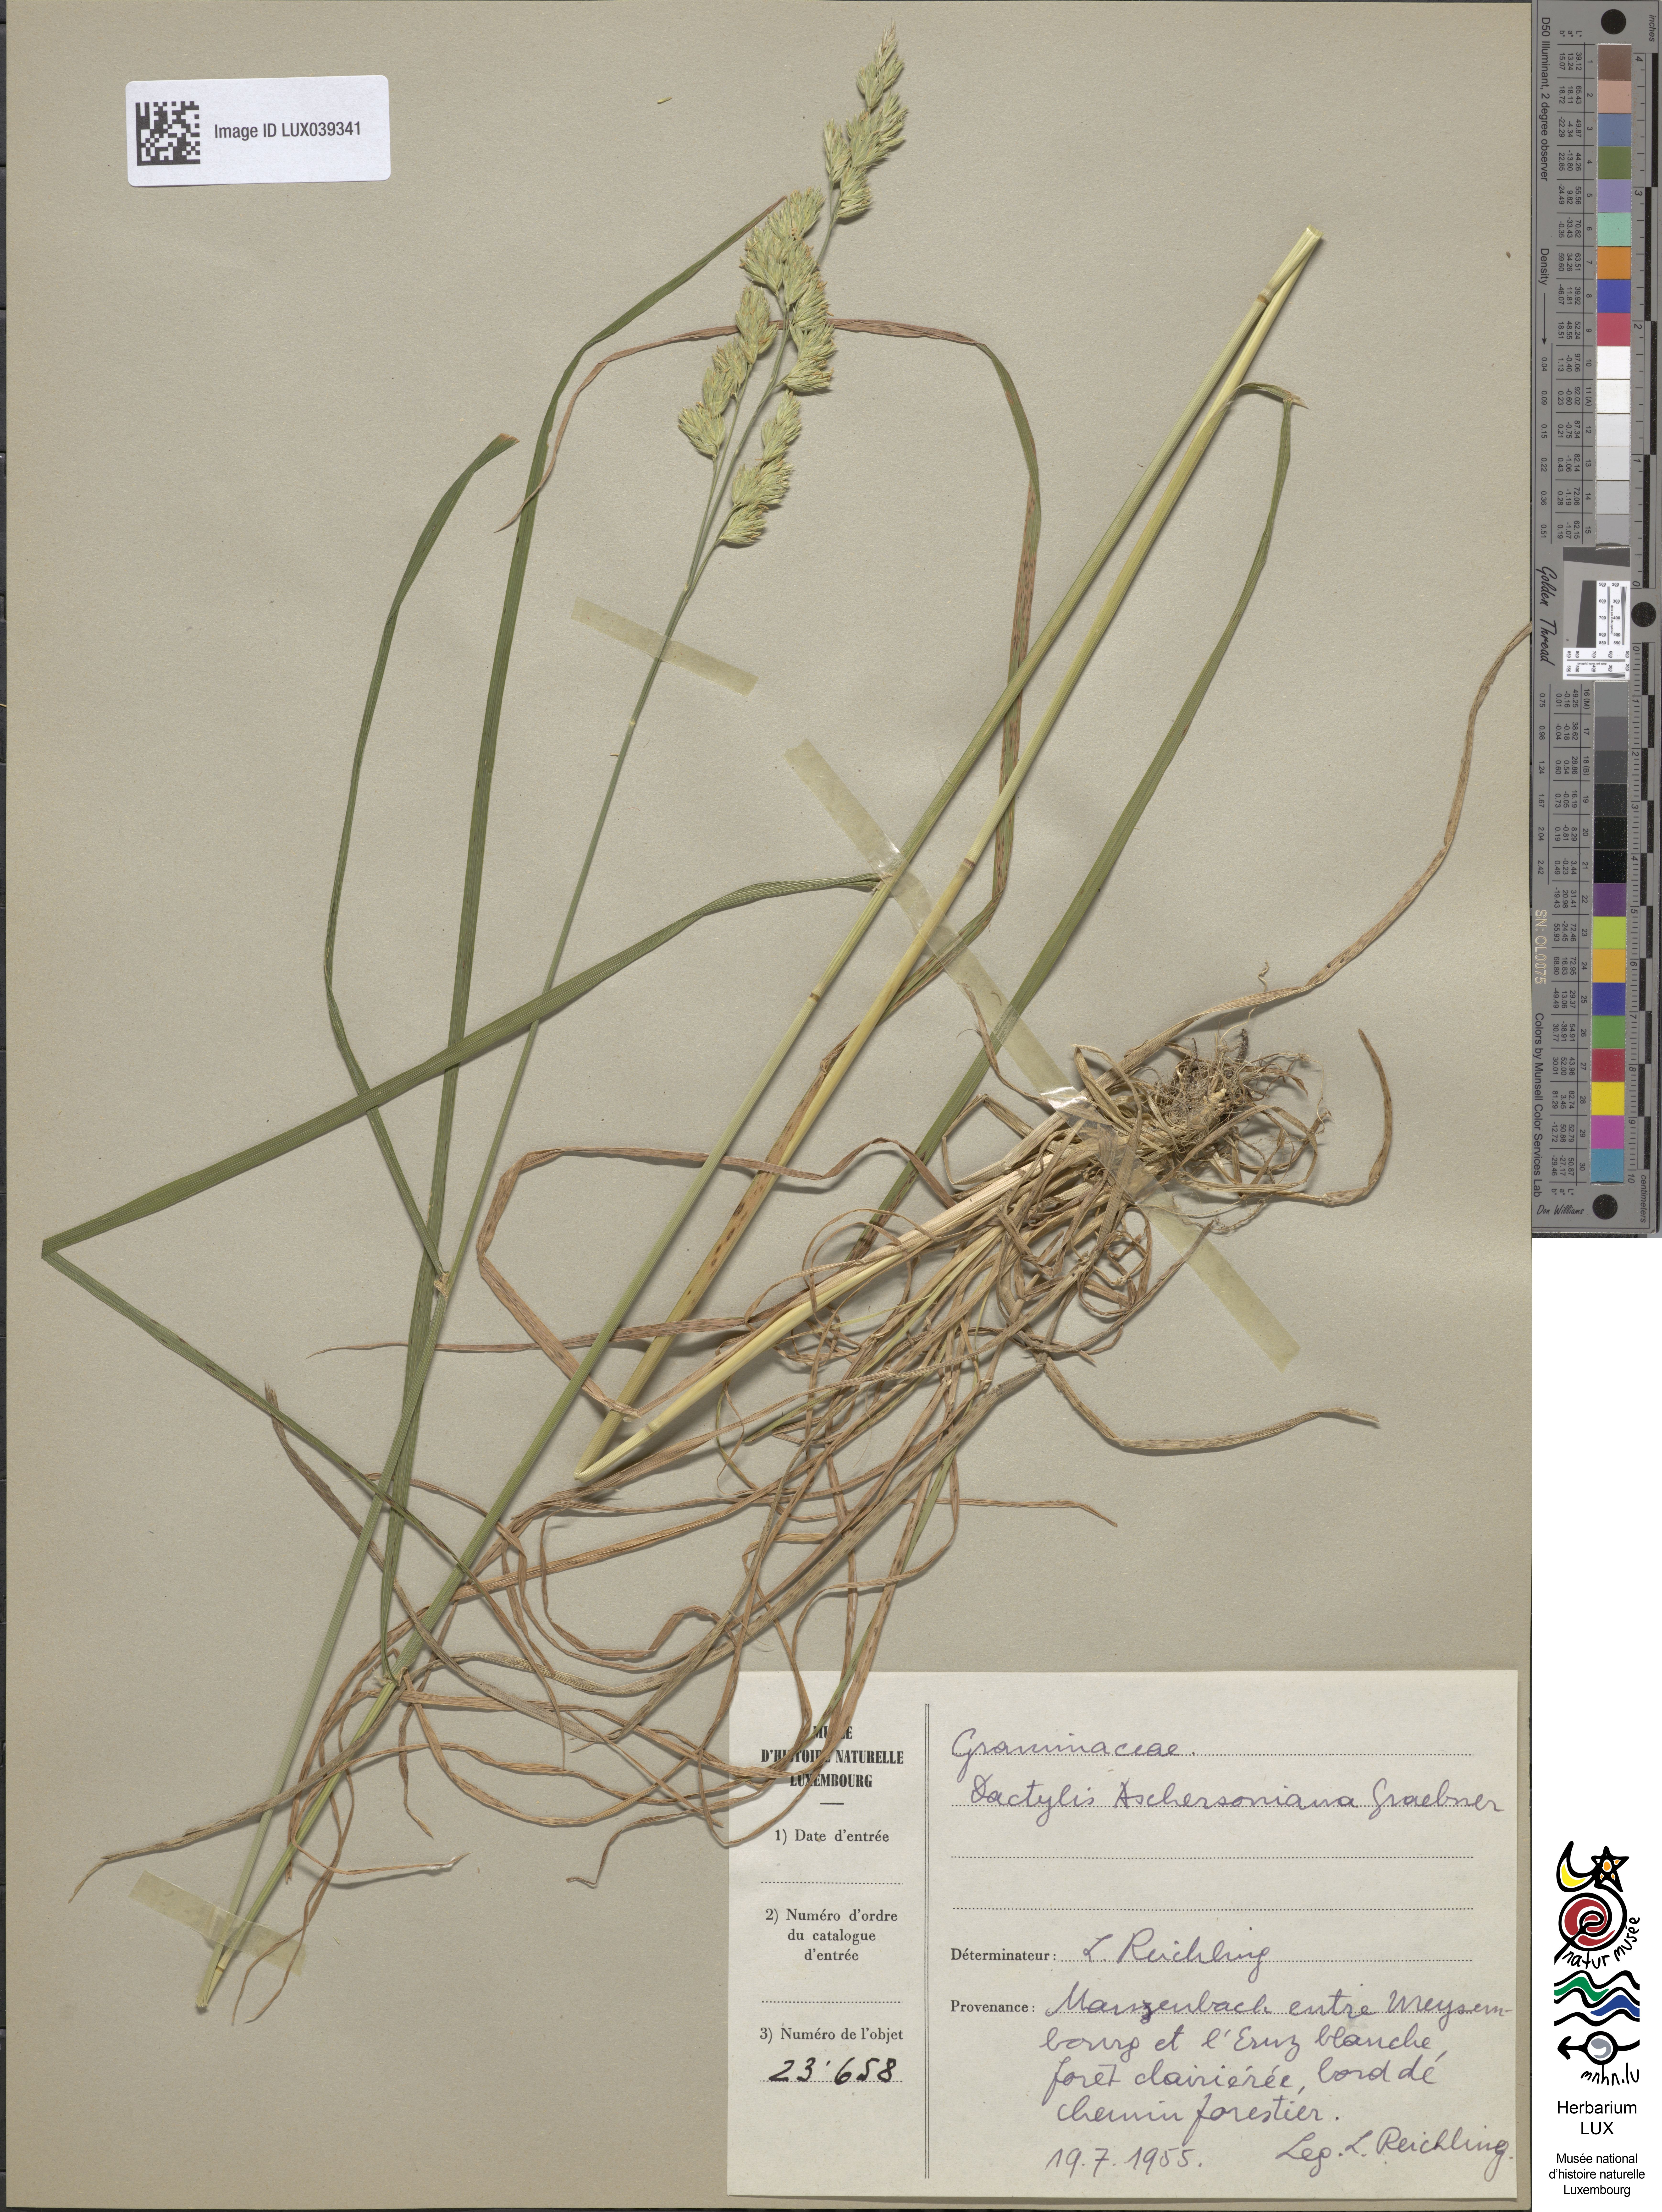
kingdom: Plantae
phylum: Tracheophyta
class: Liliopsida
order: Poales
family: Poaceae
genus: Dactylis
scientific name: Dactylis glomerata
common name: Orchardgrass
